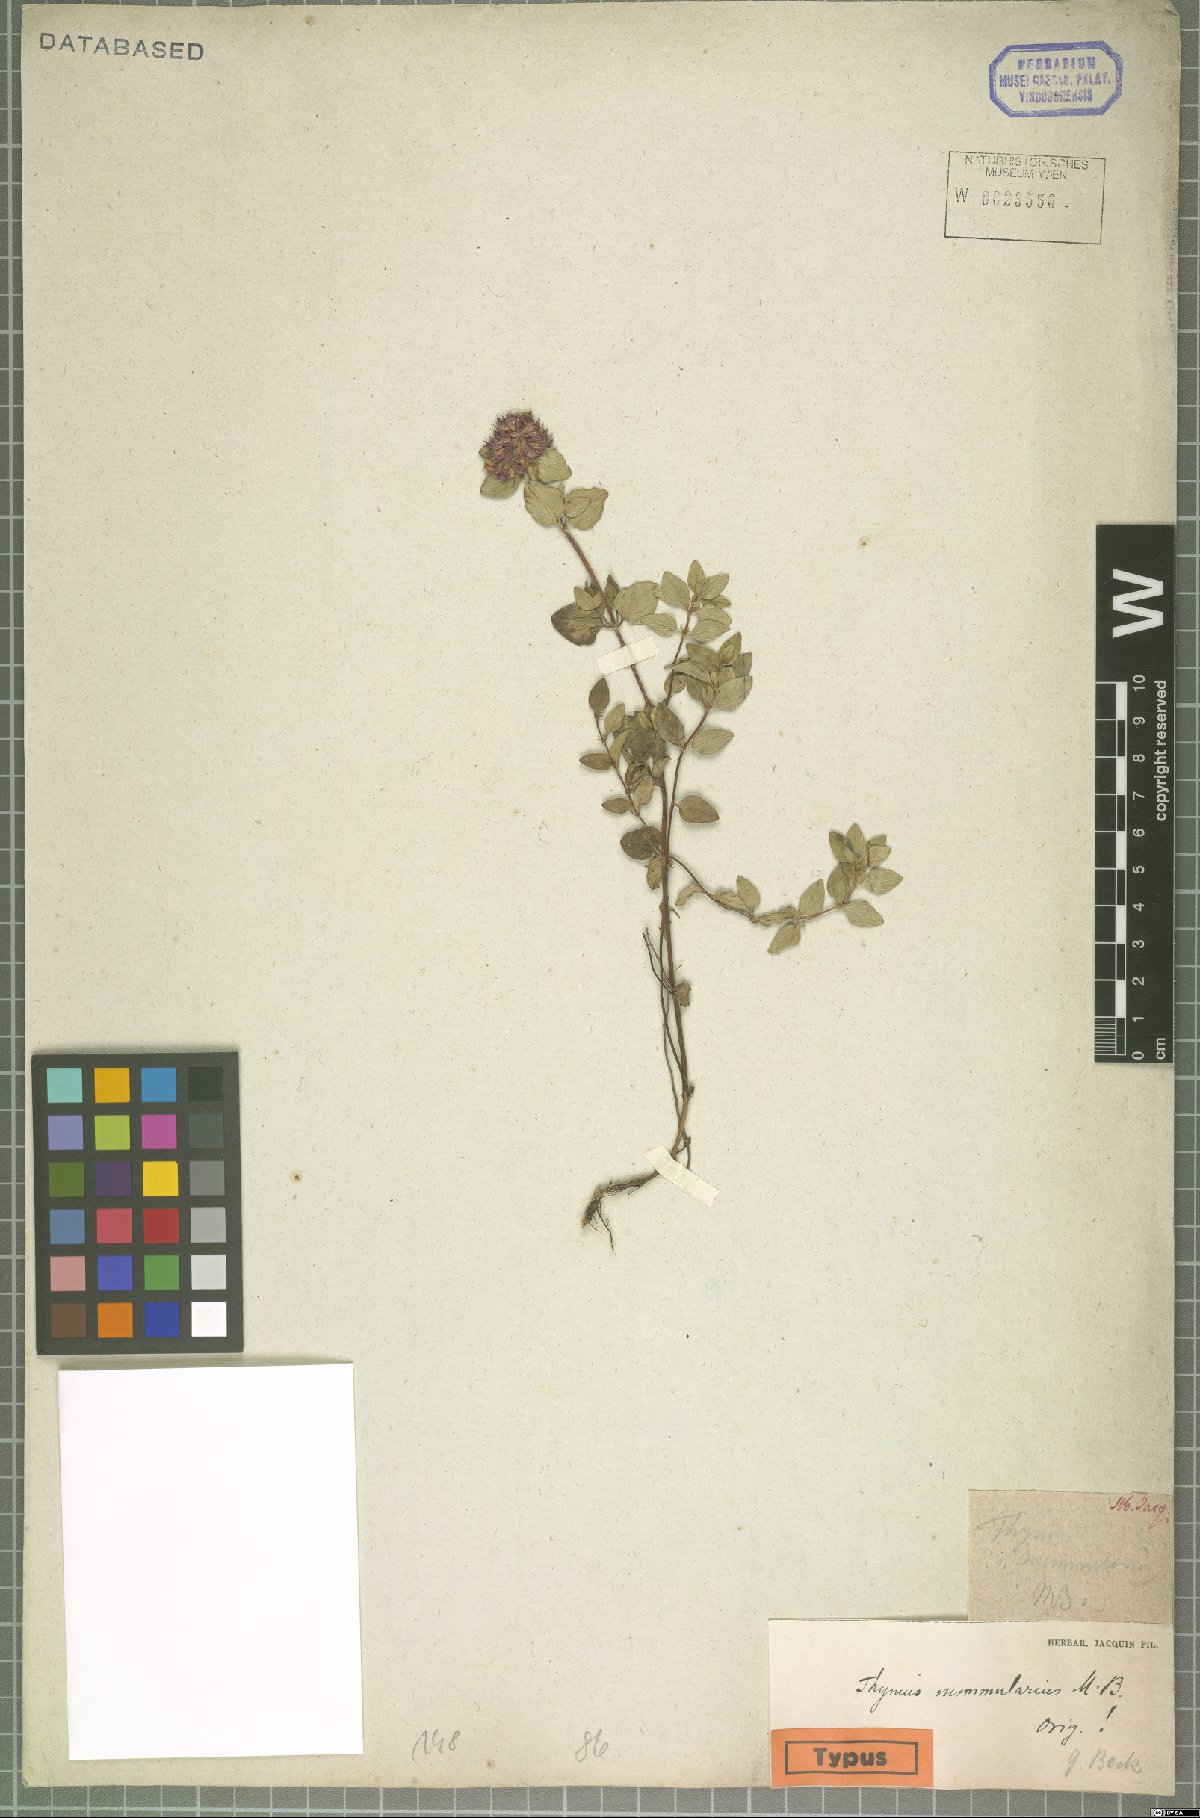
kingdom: Plantae
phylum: Tracheophyta
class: Magnoliopsida
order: Lamiales
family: Lamiaceae
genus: Thymus
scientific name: Thymus nummularius
